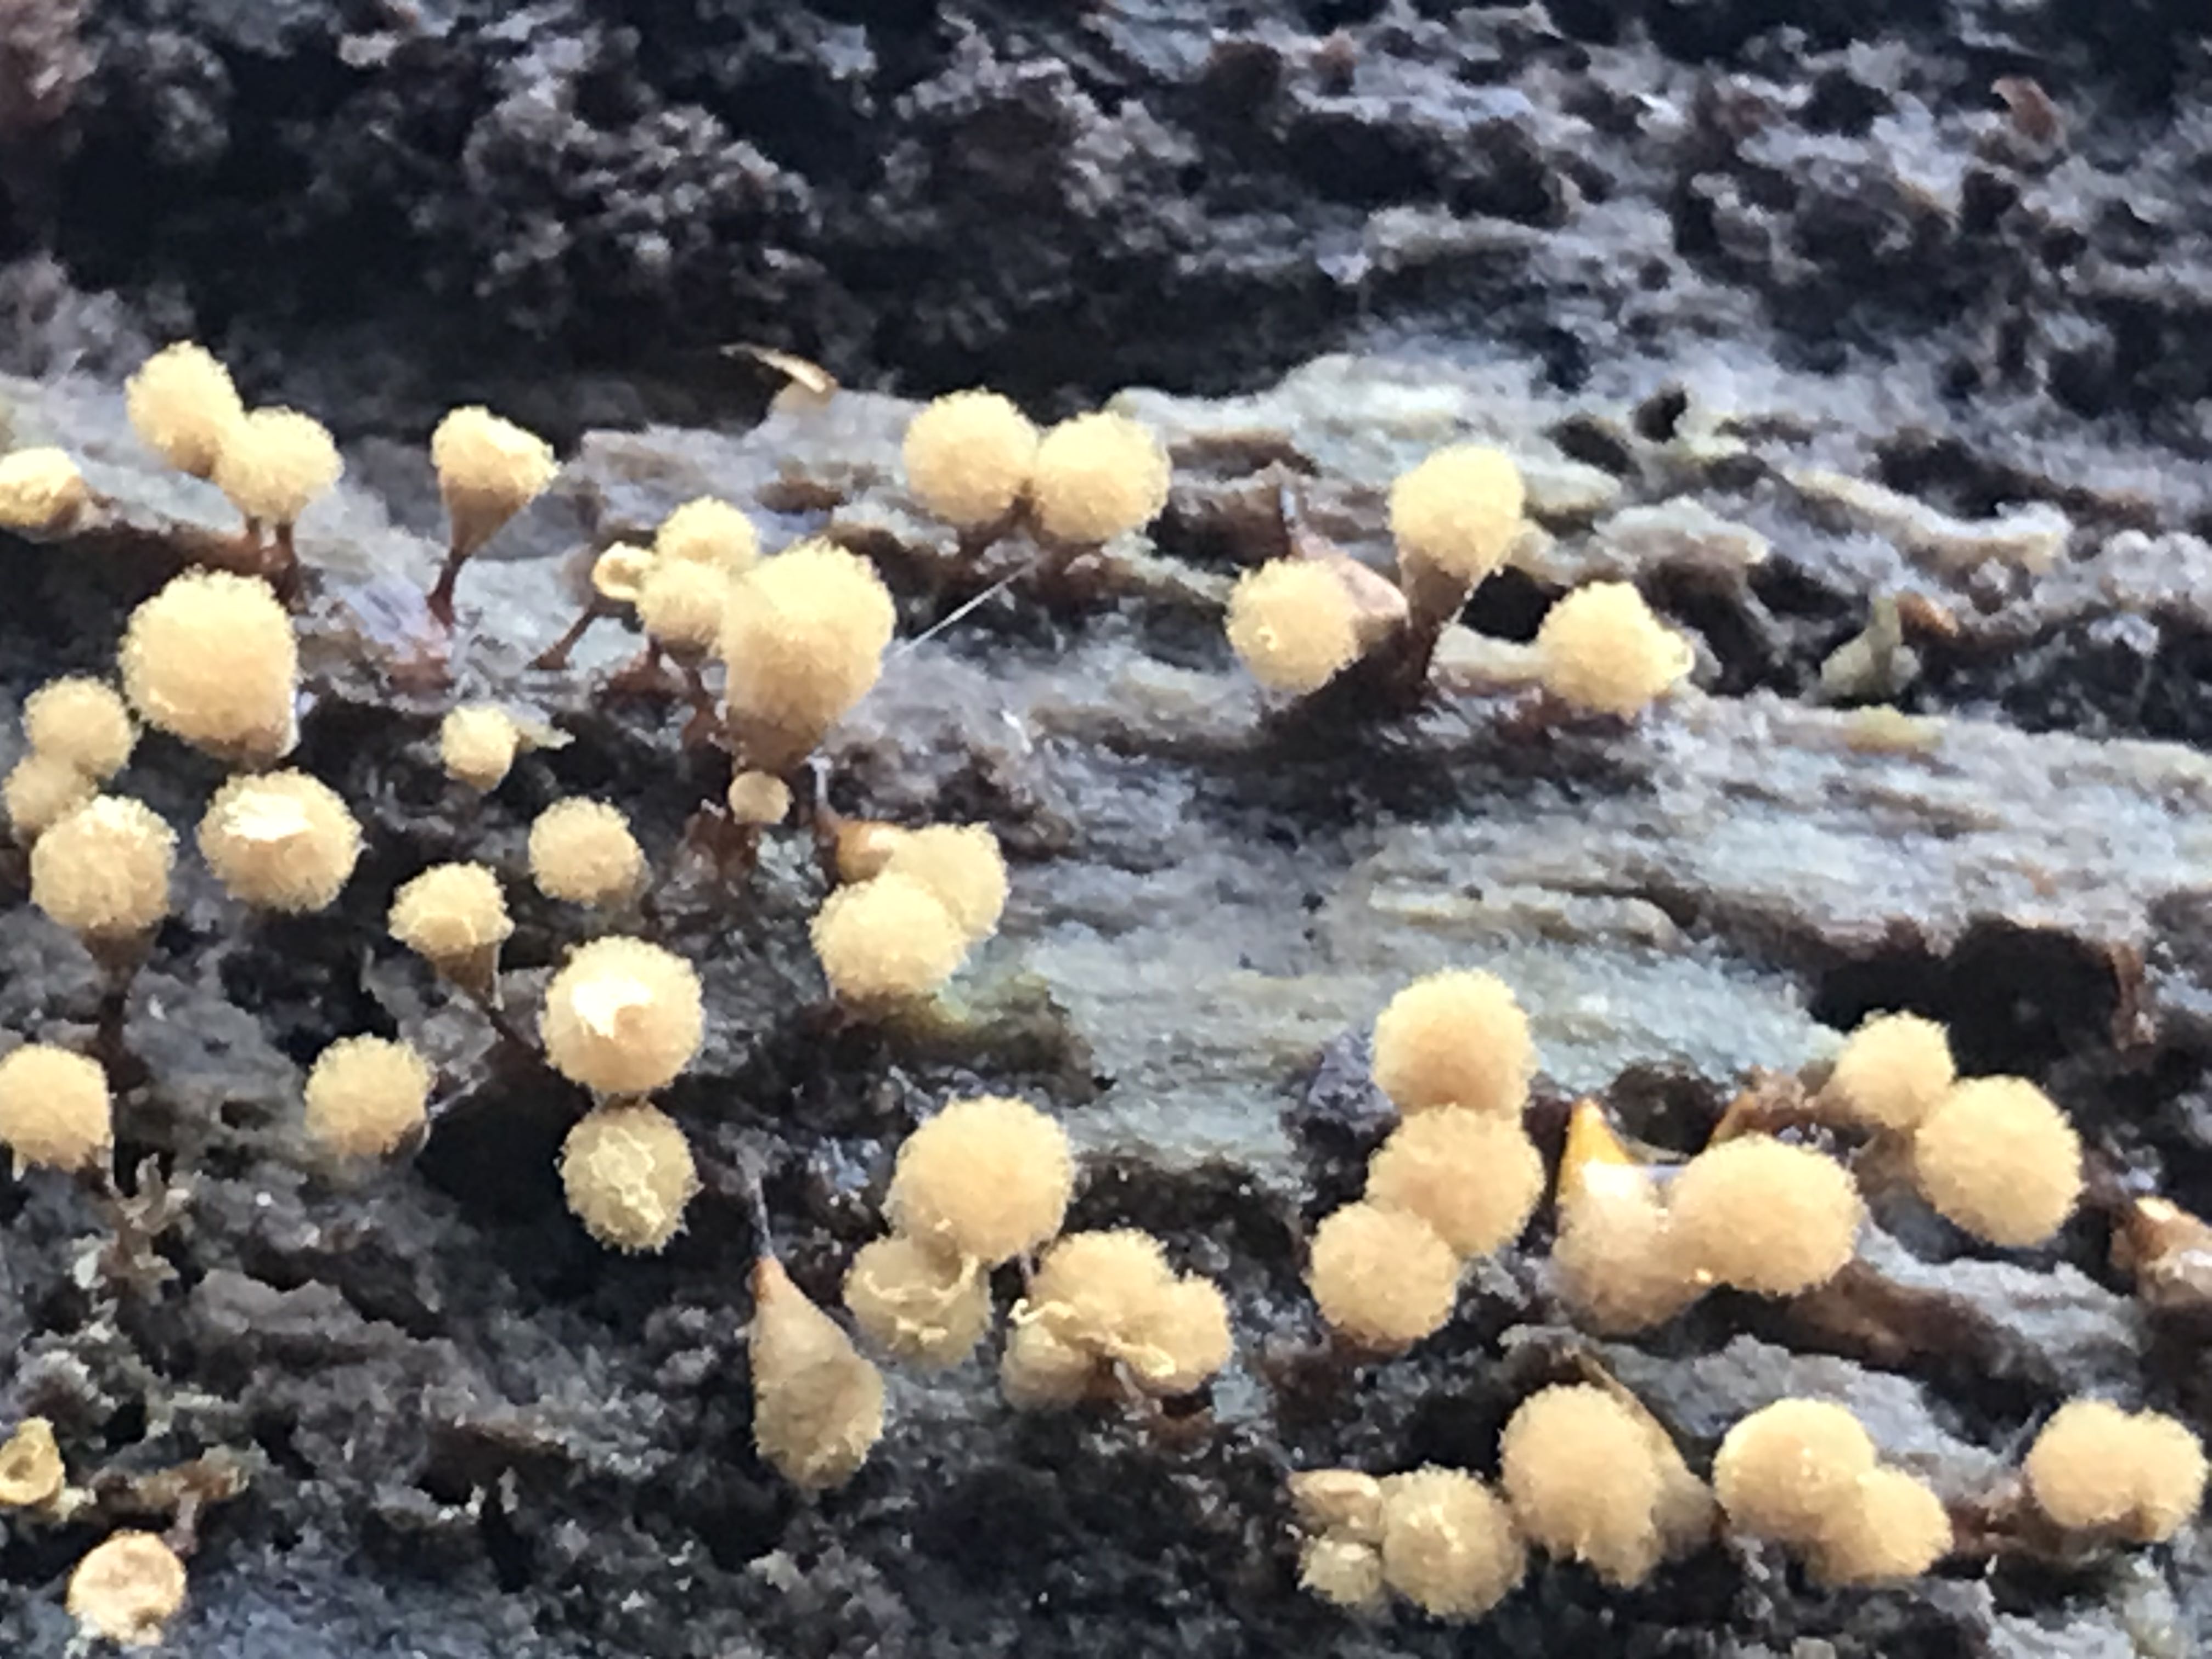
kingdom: Protozoa
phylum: Mycetozoa
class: Myxomycetes
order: Trichiales
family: Arcyriaceae
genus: Hemitrichia
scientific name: Hemitrichia clavata
